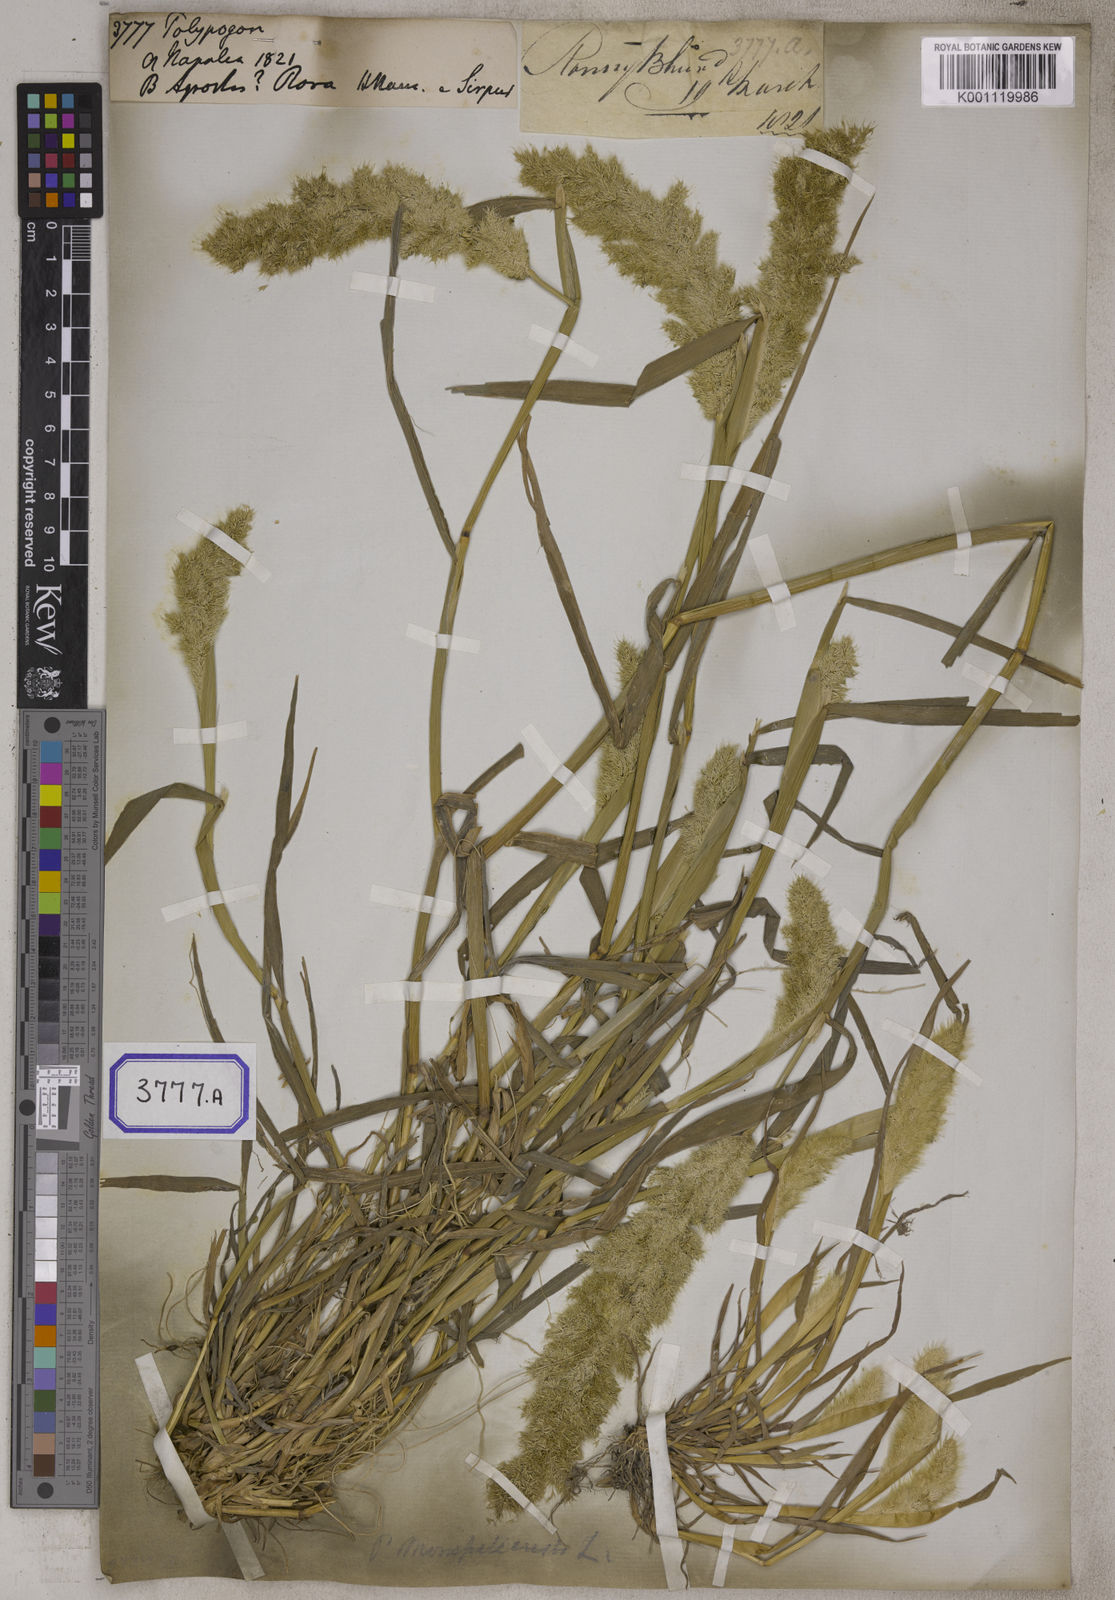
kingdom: Plantae
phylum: Tracheophyta
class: Liliopsida
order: Poales
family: Poaceae
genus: Polypogon
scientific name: Polypogon
